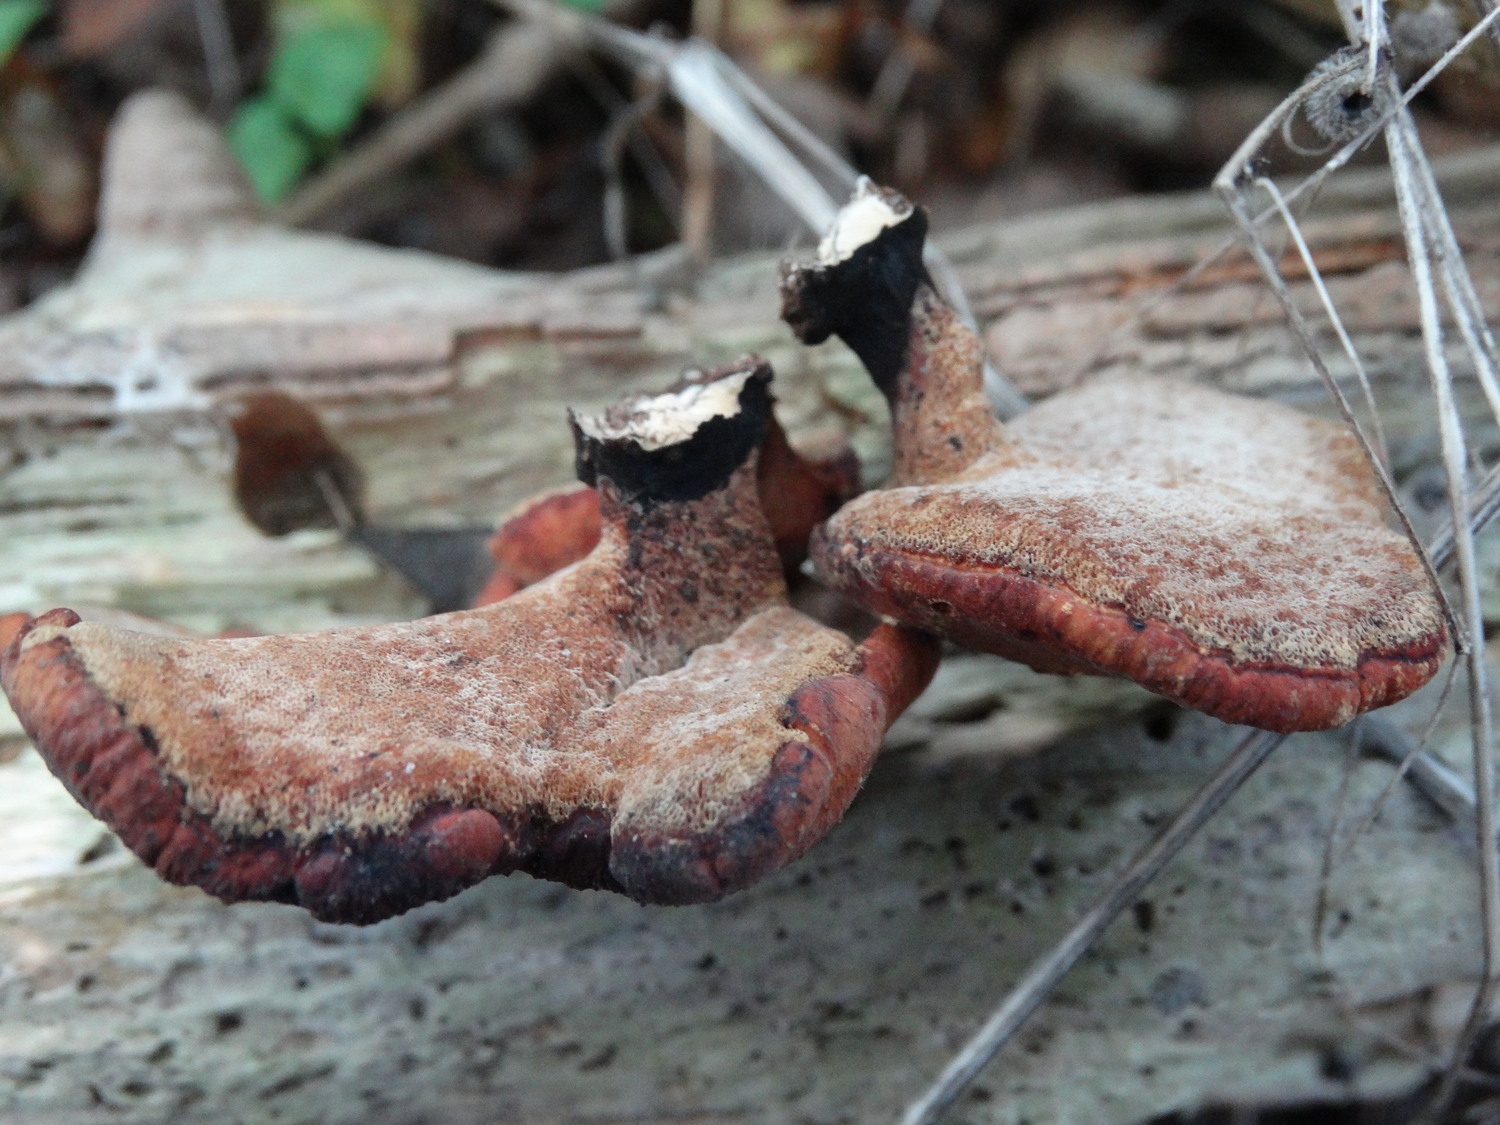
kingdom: Fungi
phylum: Basidiomycota
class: Agaricomycetes
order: Polyporales
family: Polyporaceae
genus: Cerioporus
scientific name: Cerioporus varius
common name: foranderlig stilkporesvamp
